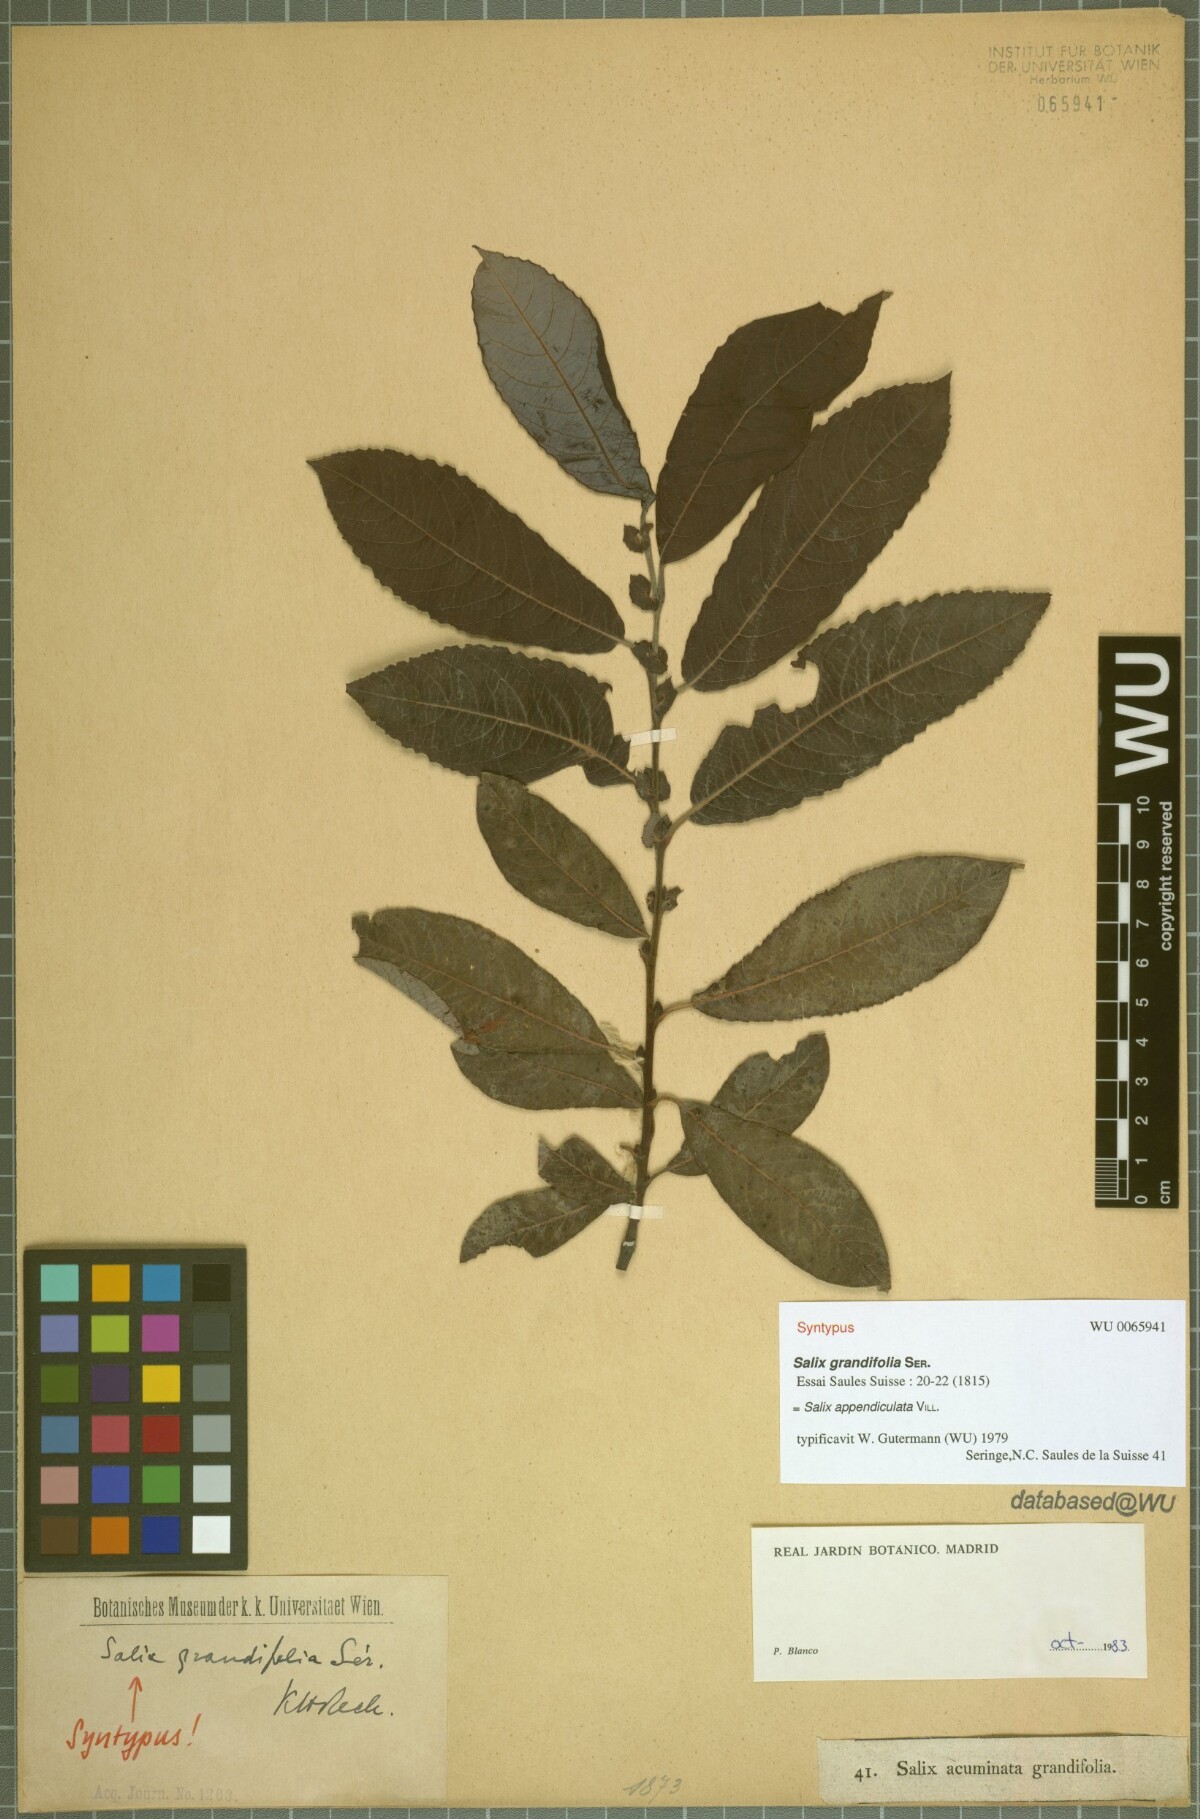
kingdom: Plantae
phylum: Tracheophyta
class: Magnoliopsida
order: Malpighiales
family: Salicaceae
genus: Salix
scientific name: Salix appendiculata
